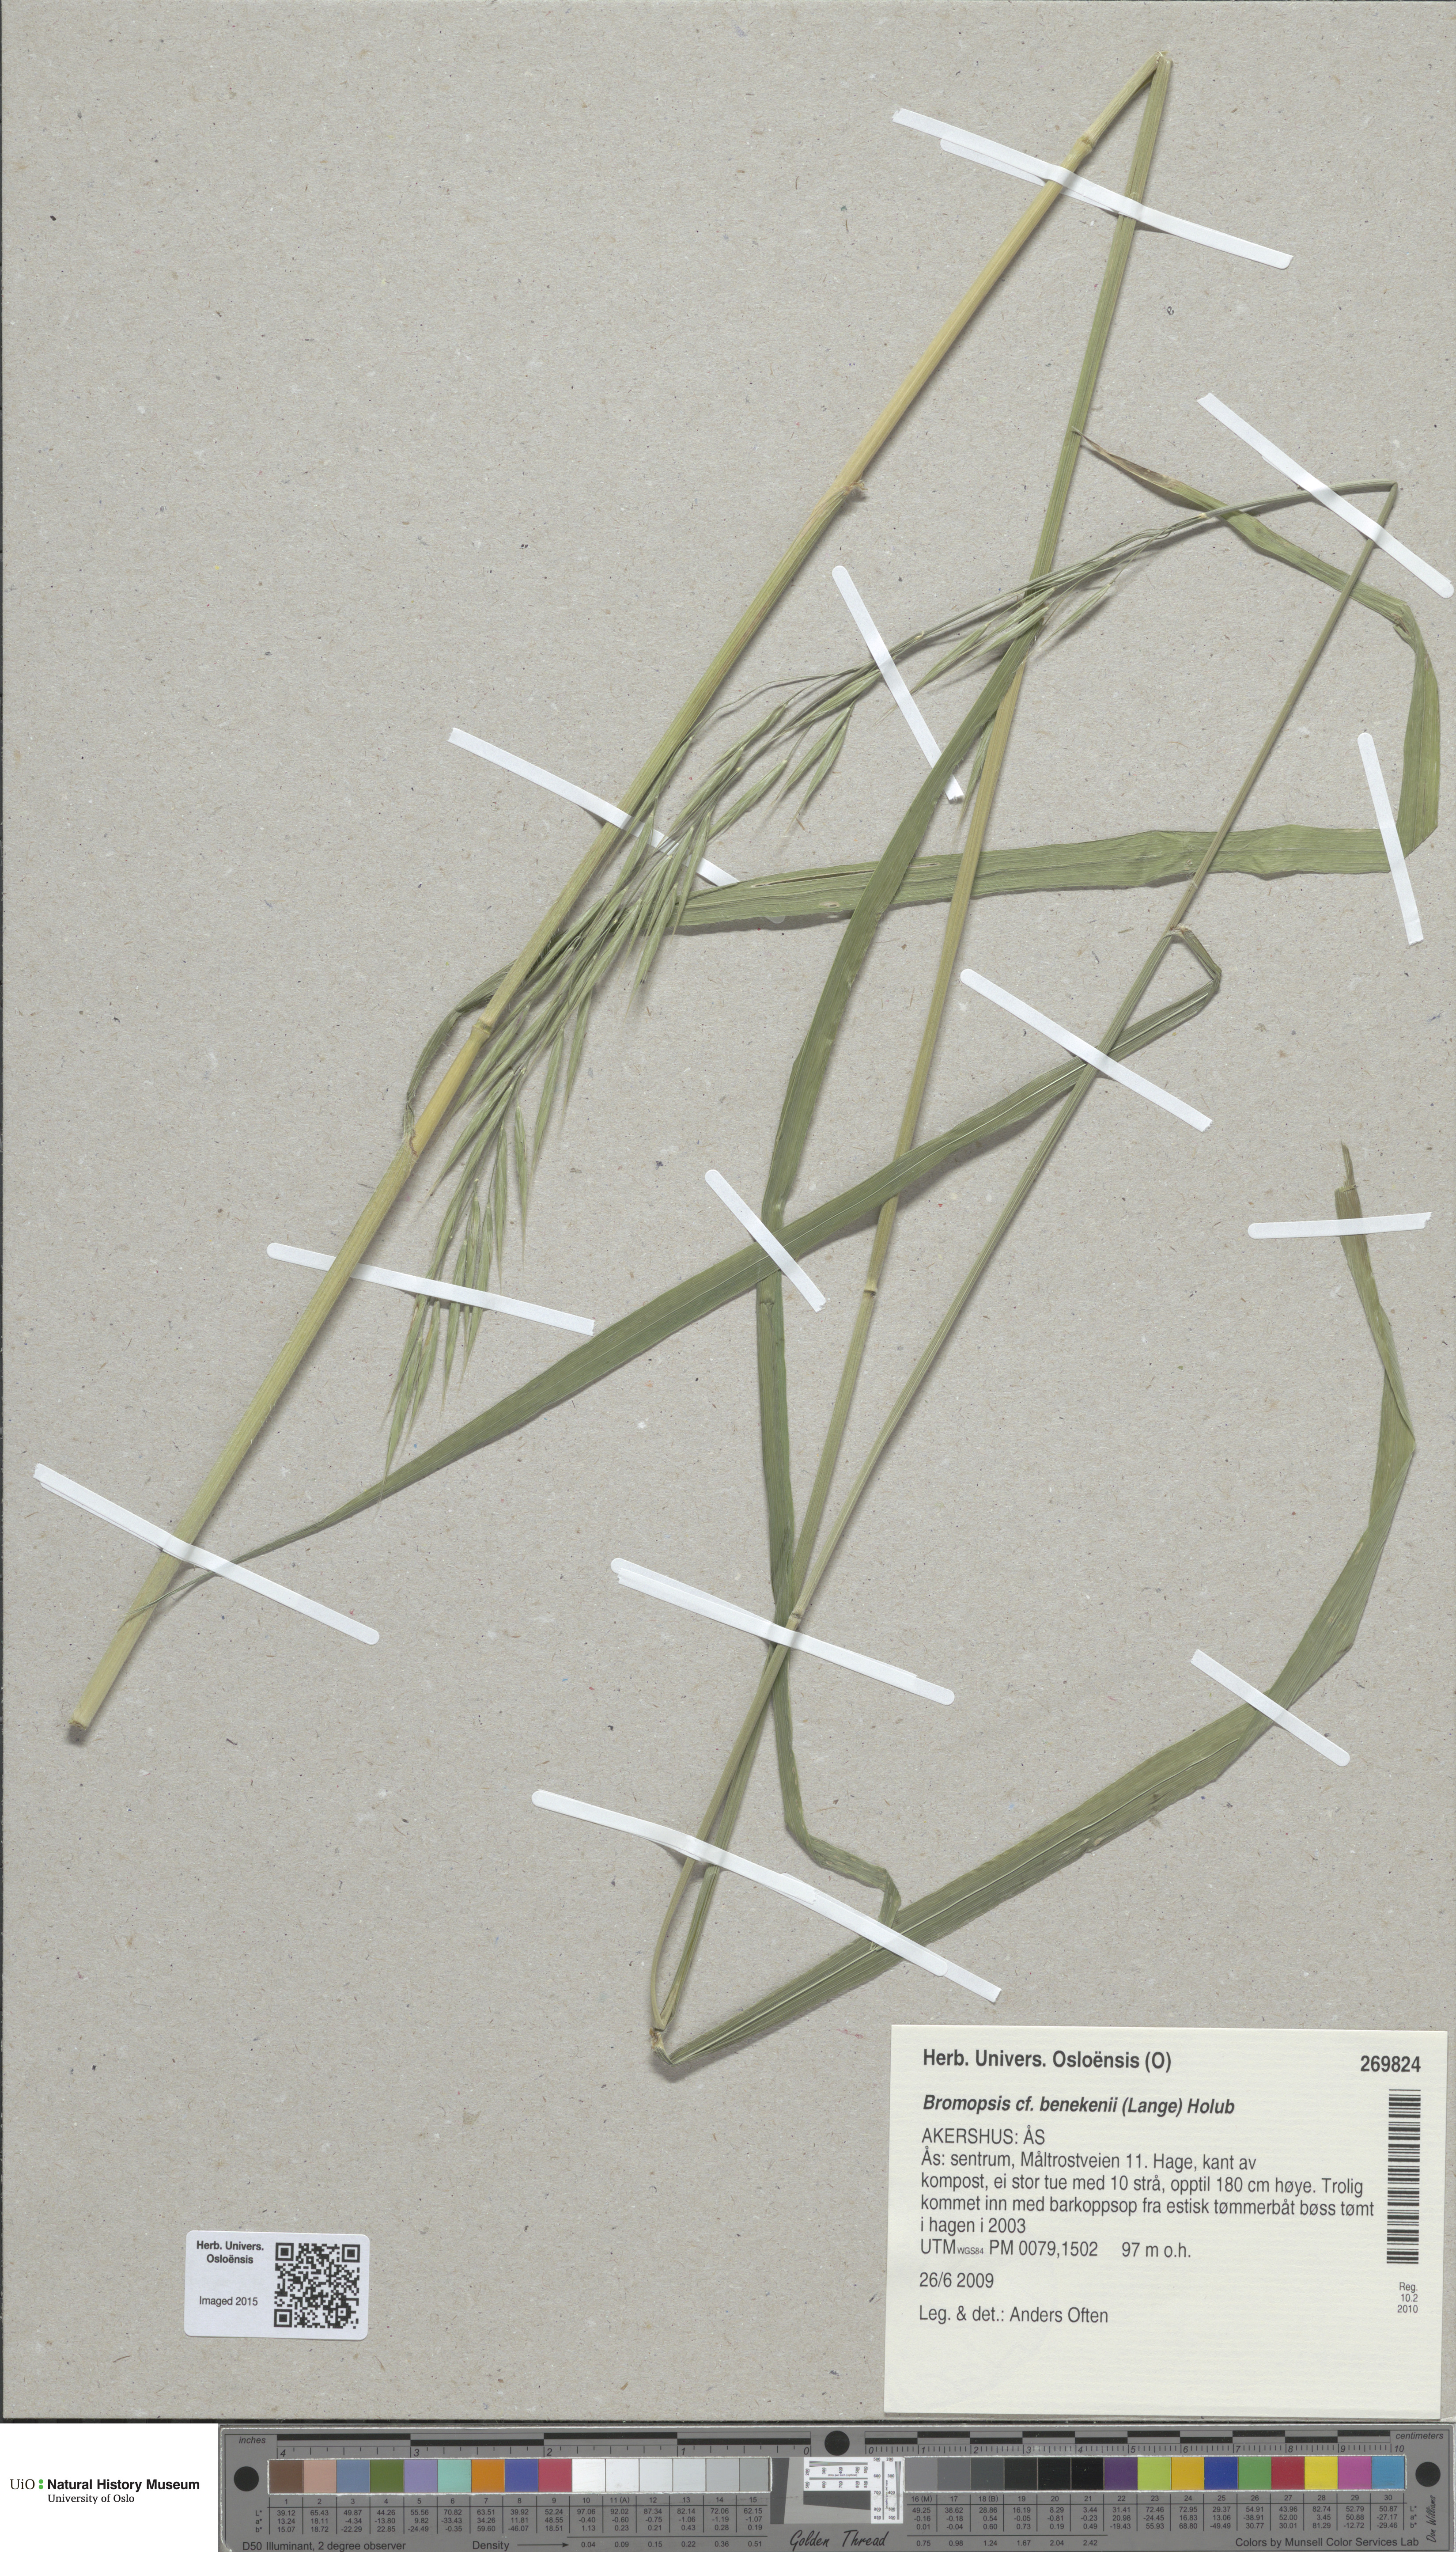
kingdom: Plantae
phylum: Tracheophyta
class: Liliopsida
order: Poales
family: Poaceae
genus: Bromus
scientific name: Bromus benekenii
